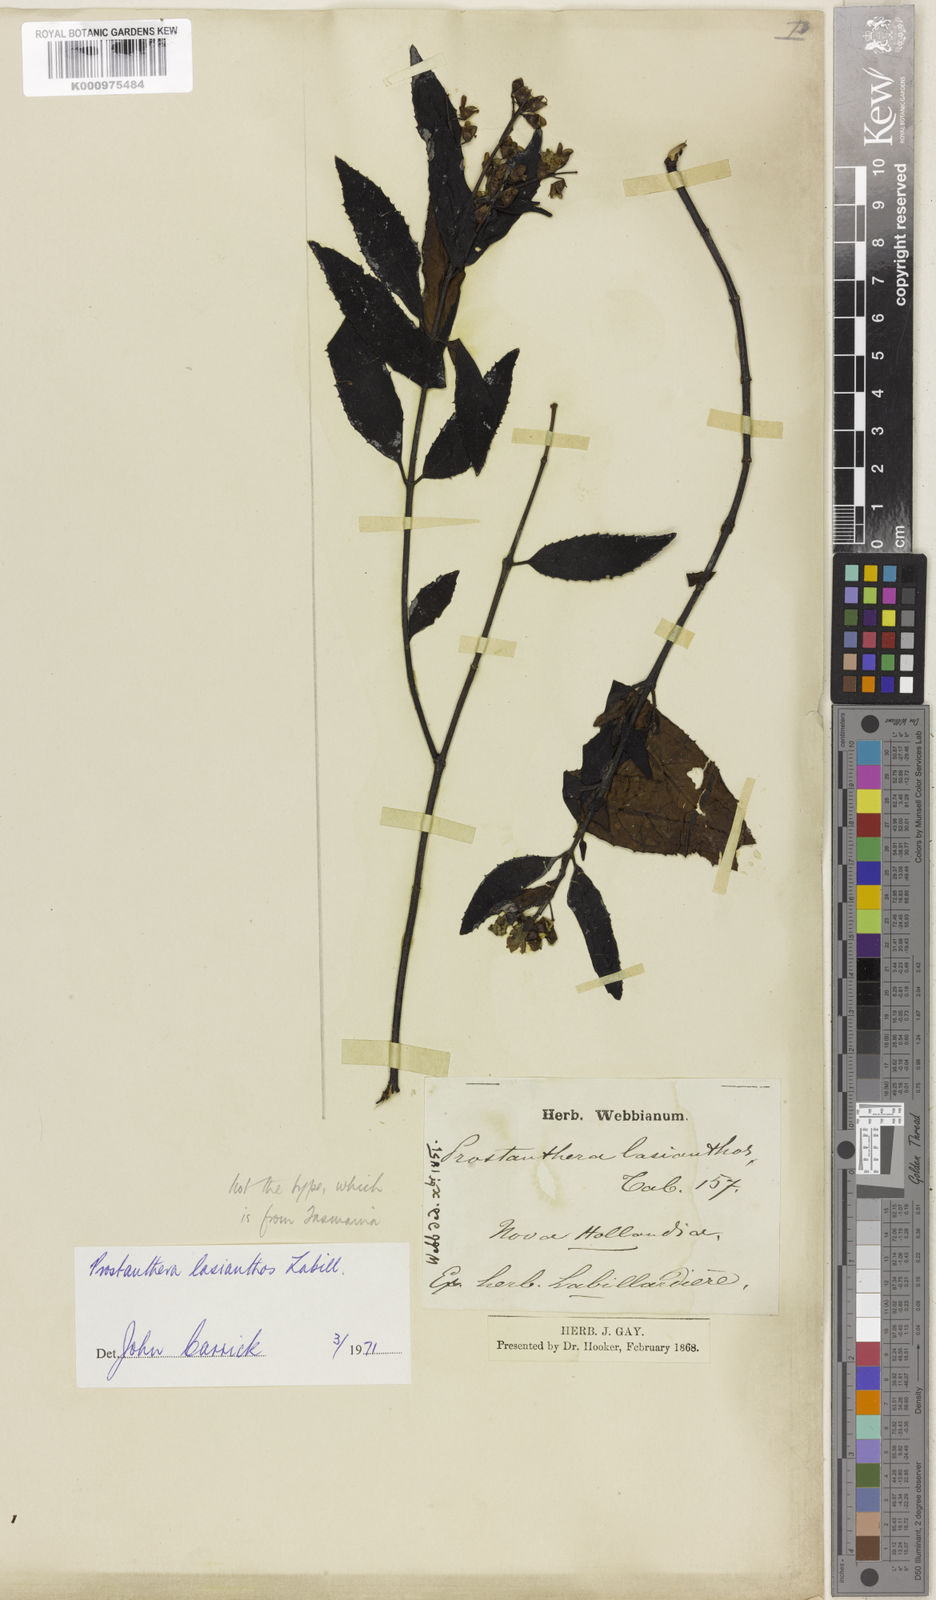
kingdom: Plantae
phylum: Tracheophyta
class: Magnoliopsida
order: Lamiales
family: Lamiaceae
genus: Prostanthera
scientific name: Prostanthera lasianthos
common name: Mountain-lilac
